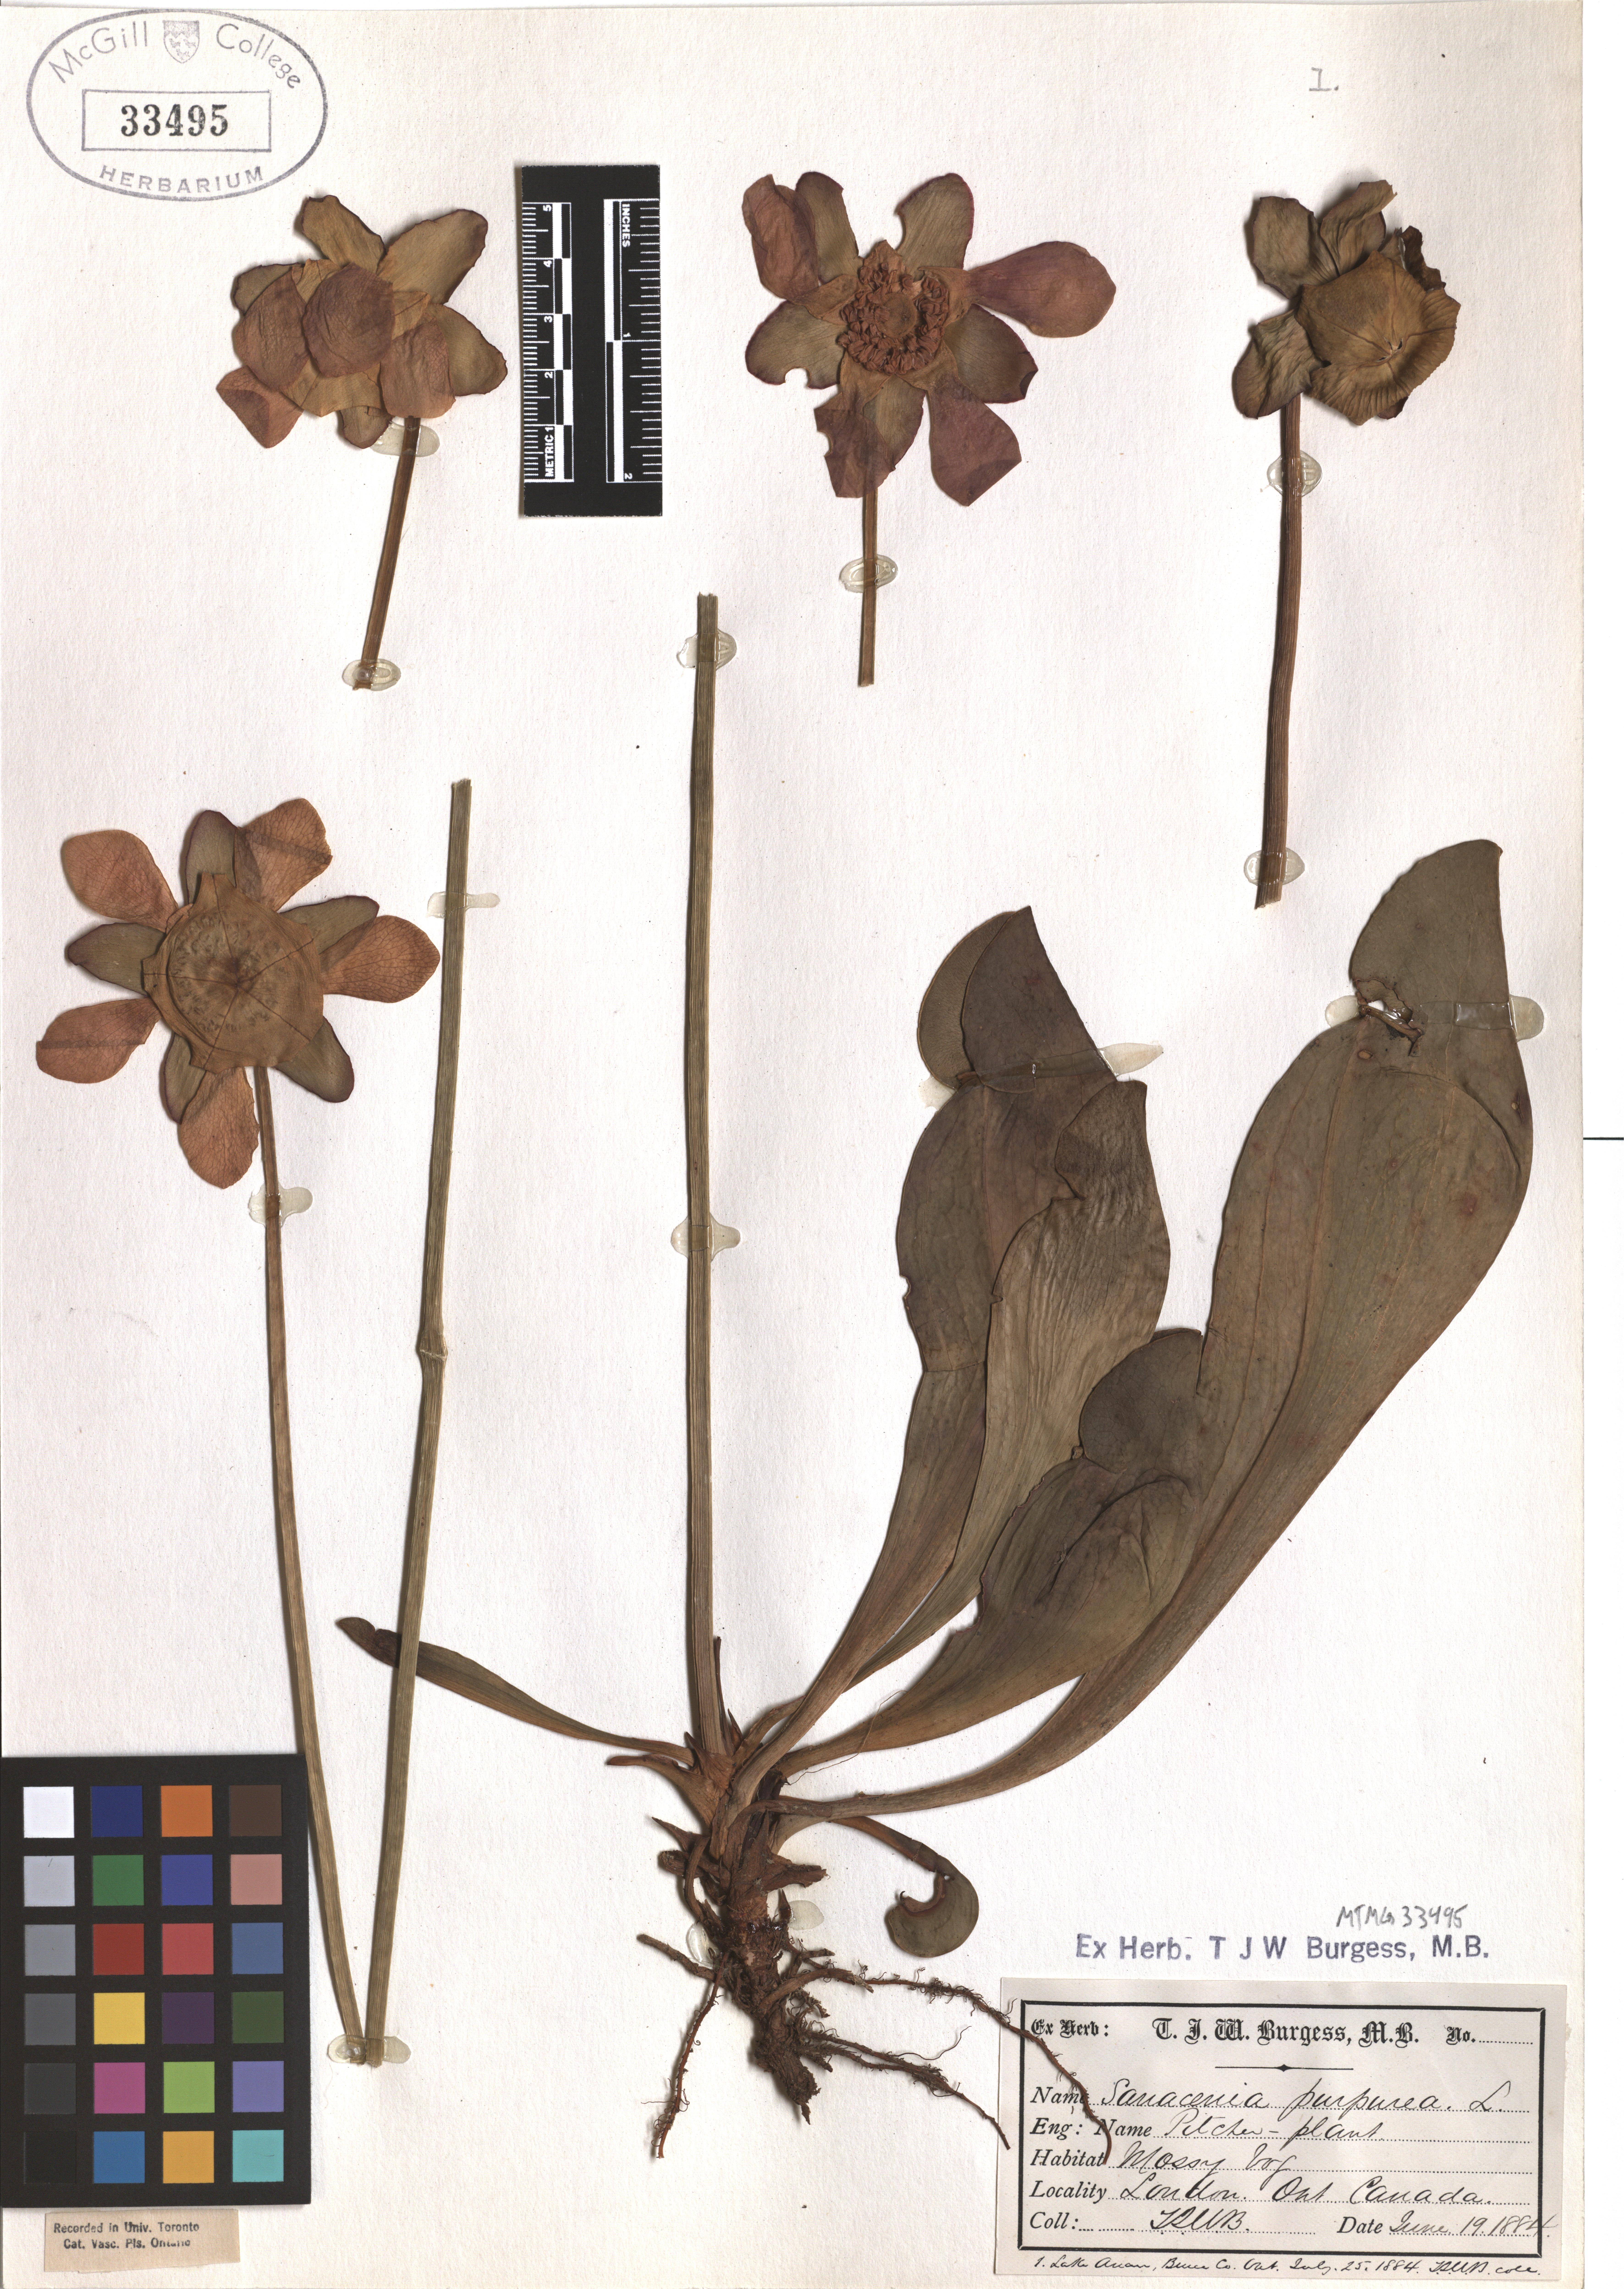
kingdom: Plantae
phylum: Tracheophyta
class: Magnoliopsida
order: Ericales
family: Sarraceniaceae
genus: Sarracenia
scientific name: Sarracenia purpurea
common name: Pitcherplant
